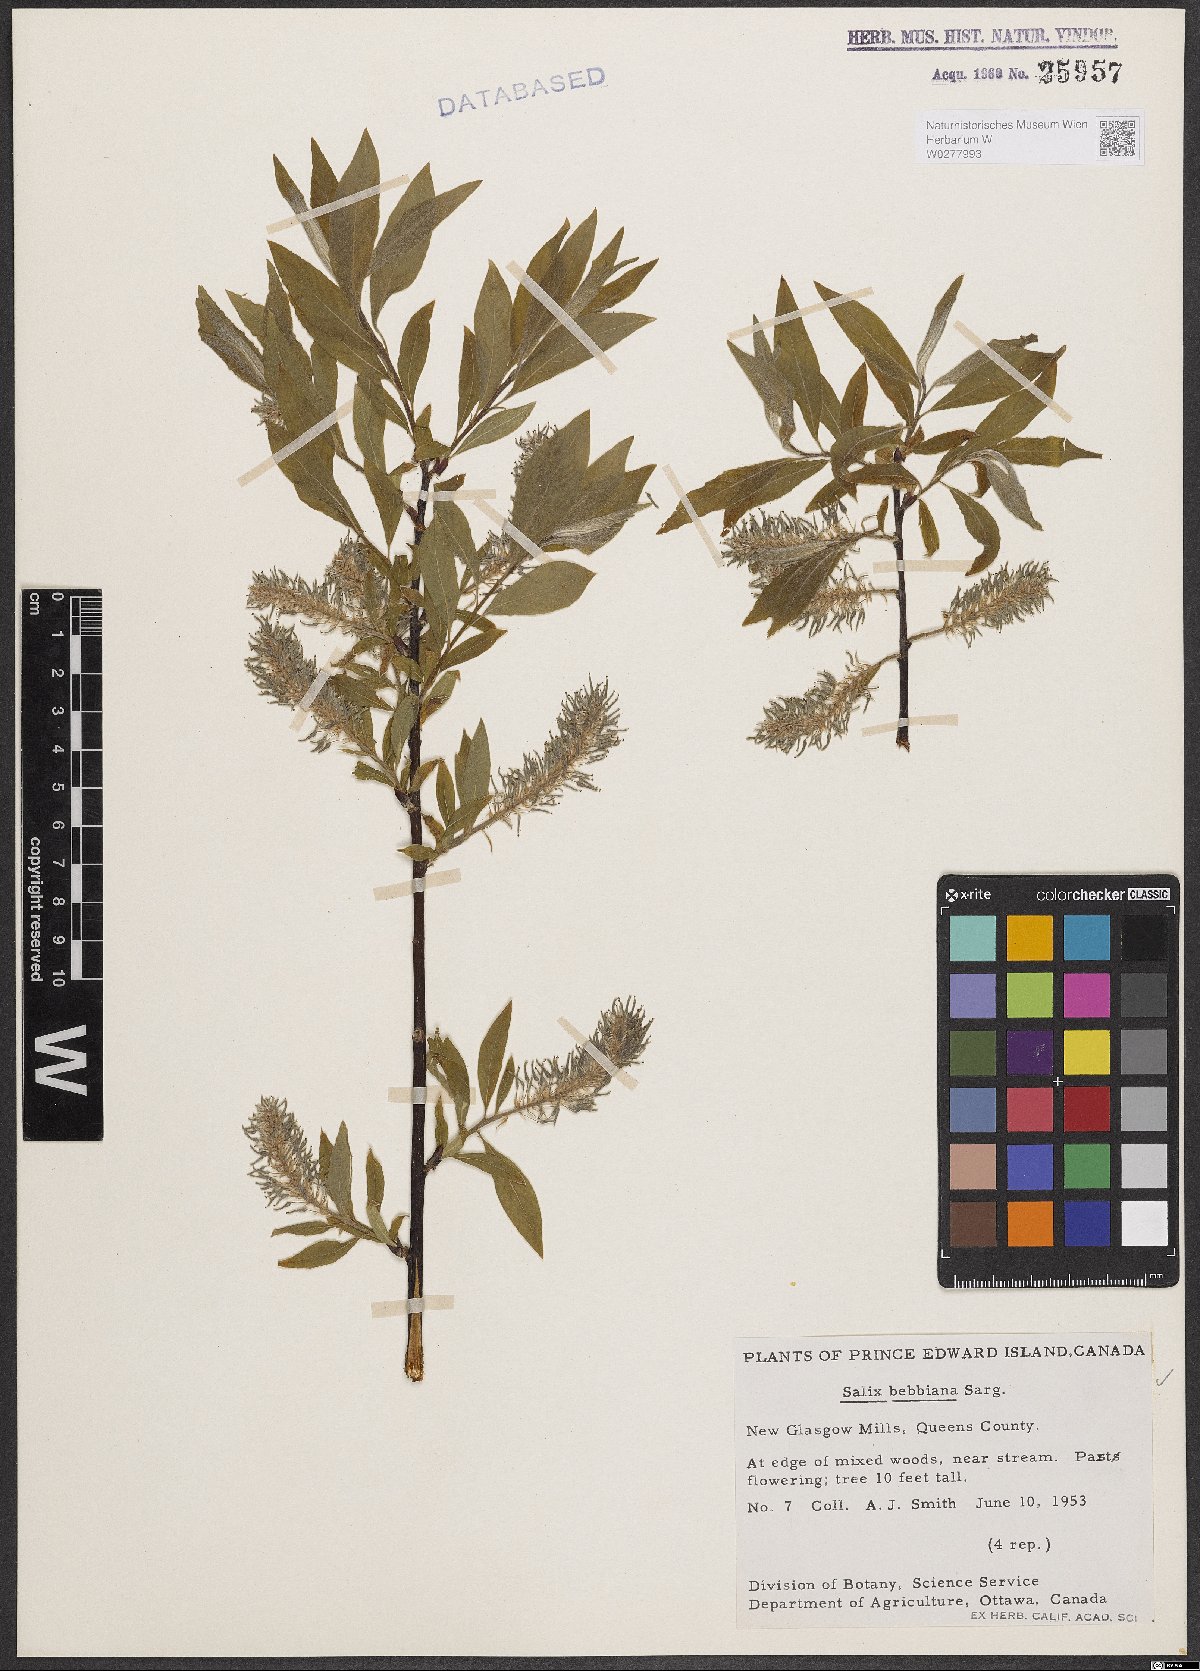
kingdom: Plantae
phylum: Tracheophyta
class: Magnoliopsida
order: Malpighiales
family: Salicaceae
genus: Salix
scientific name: Salix bebbiana
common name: Bebb's willow
